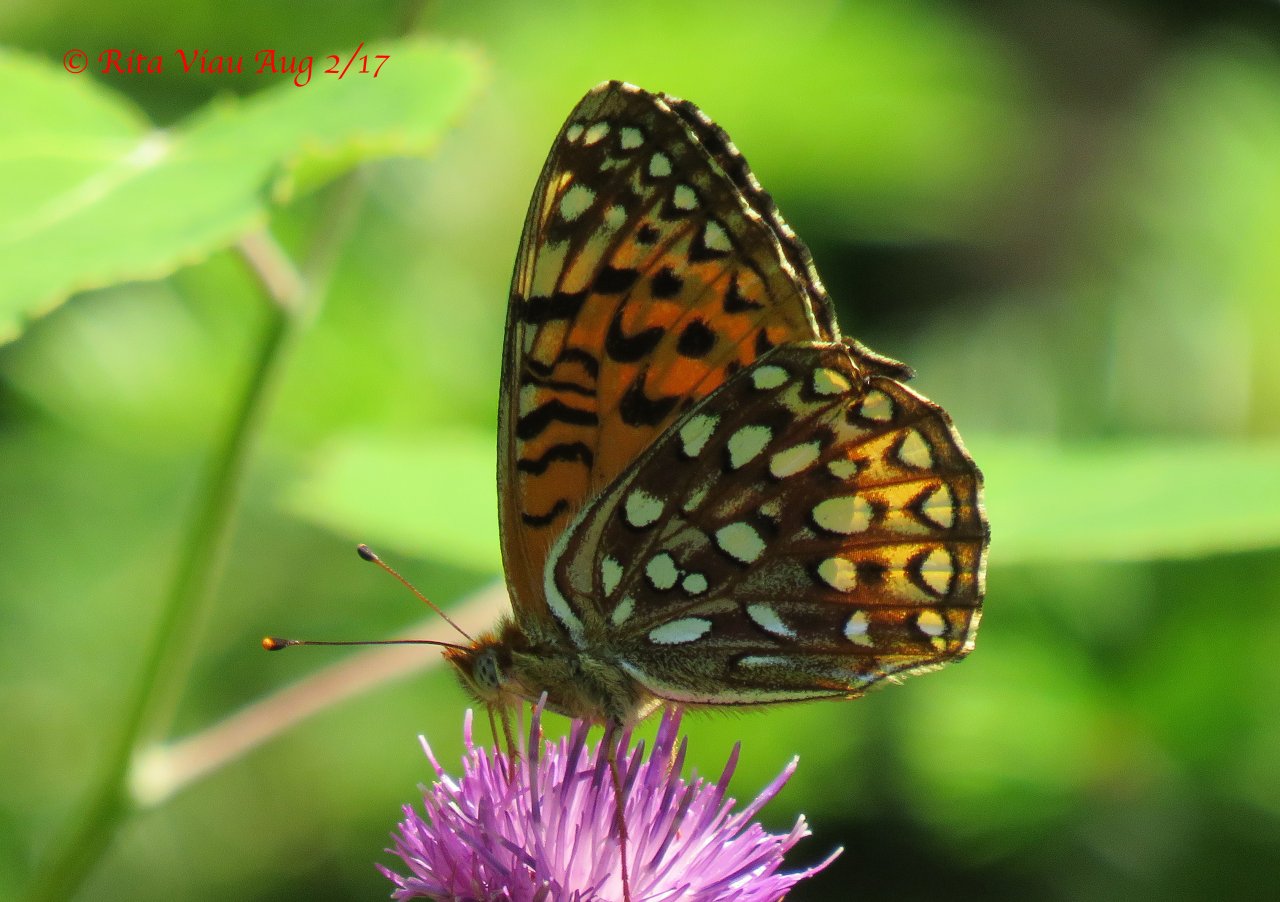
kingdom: Animalia
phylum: Arthropoda
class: Insecta
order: Lepidoptera
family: Nymphalidae
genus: Speyeria
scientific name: Speyeria atlantis
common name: Atlantis Fritillary
